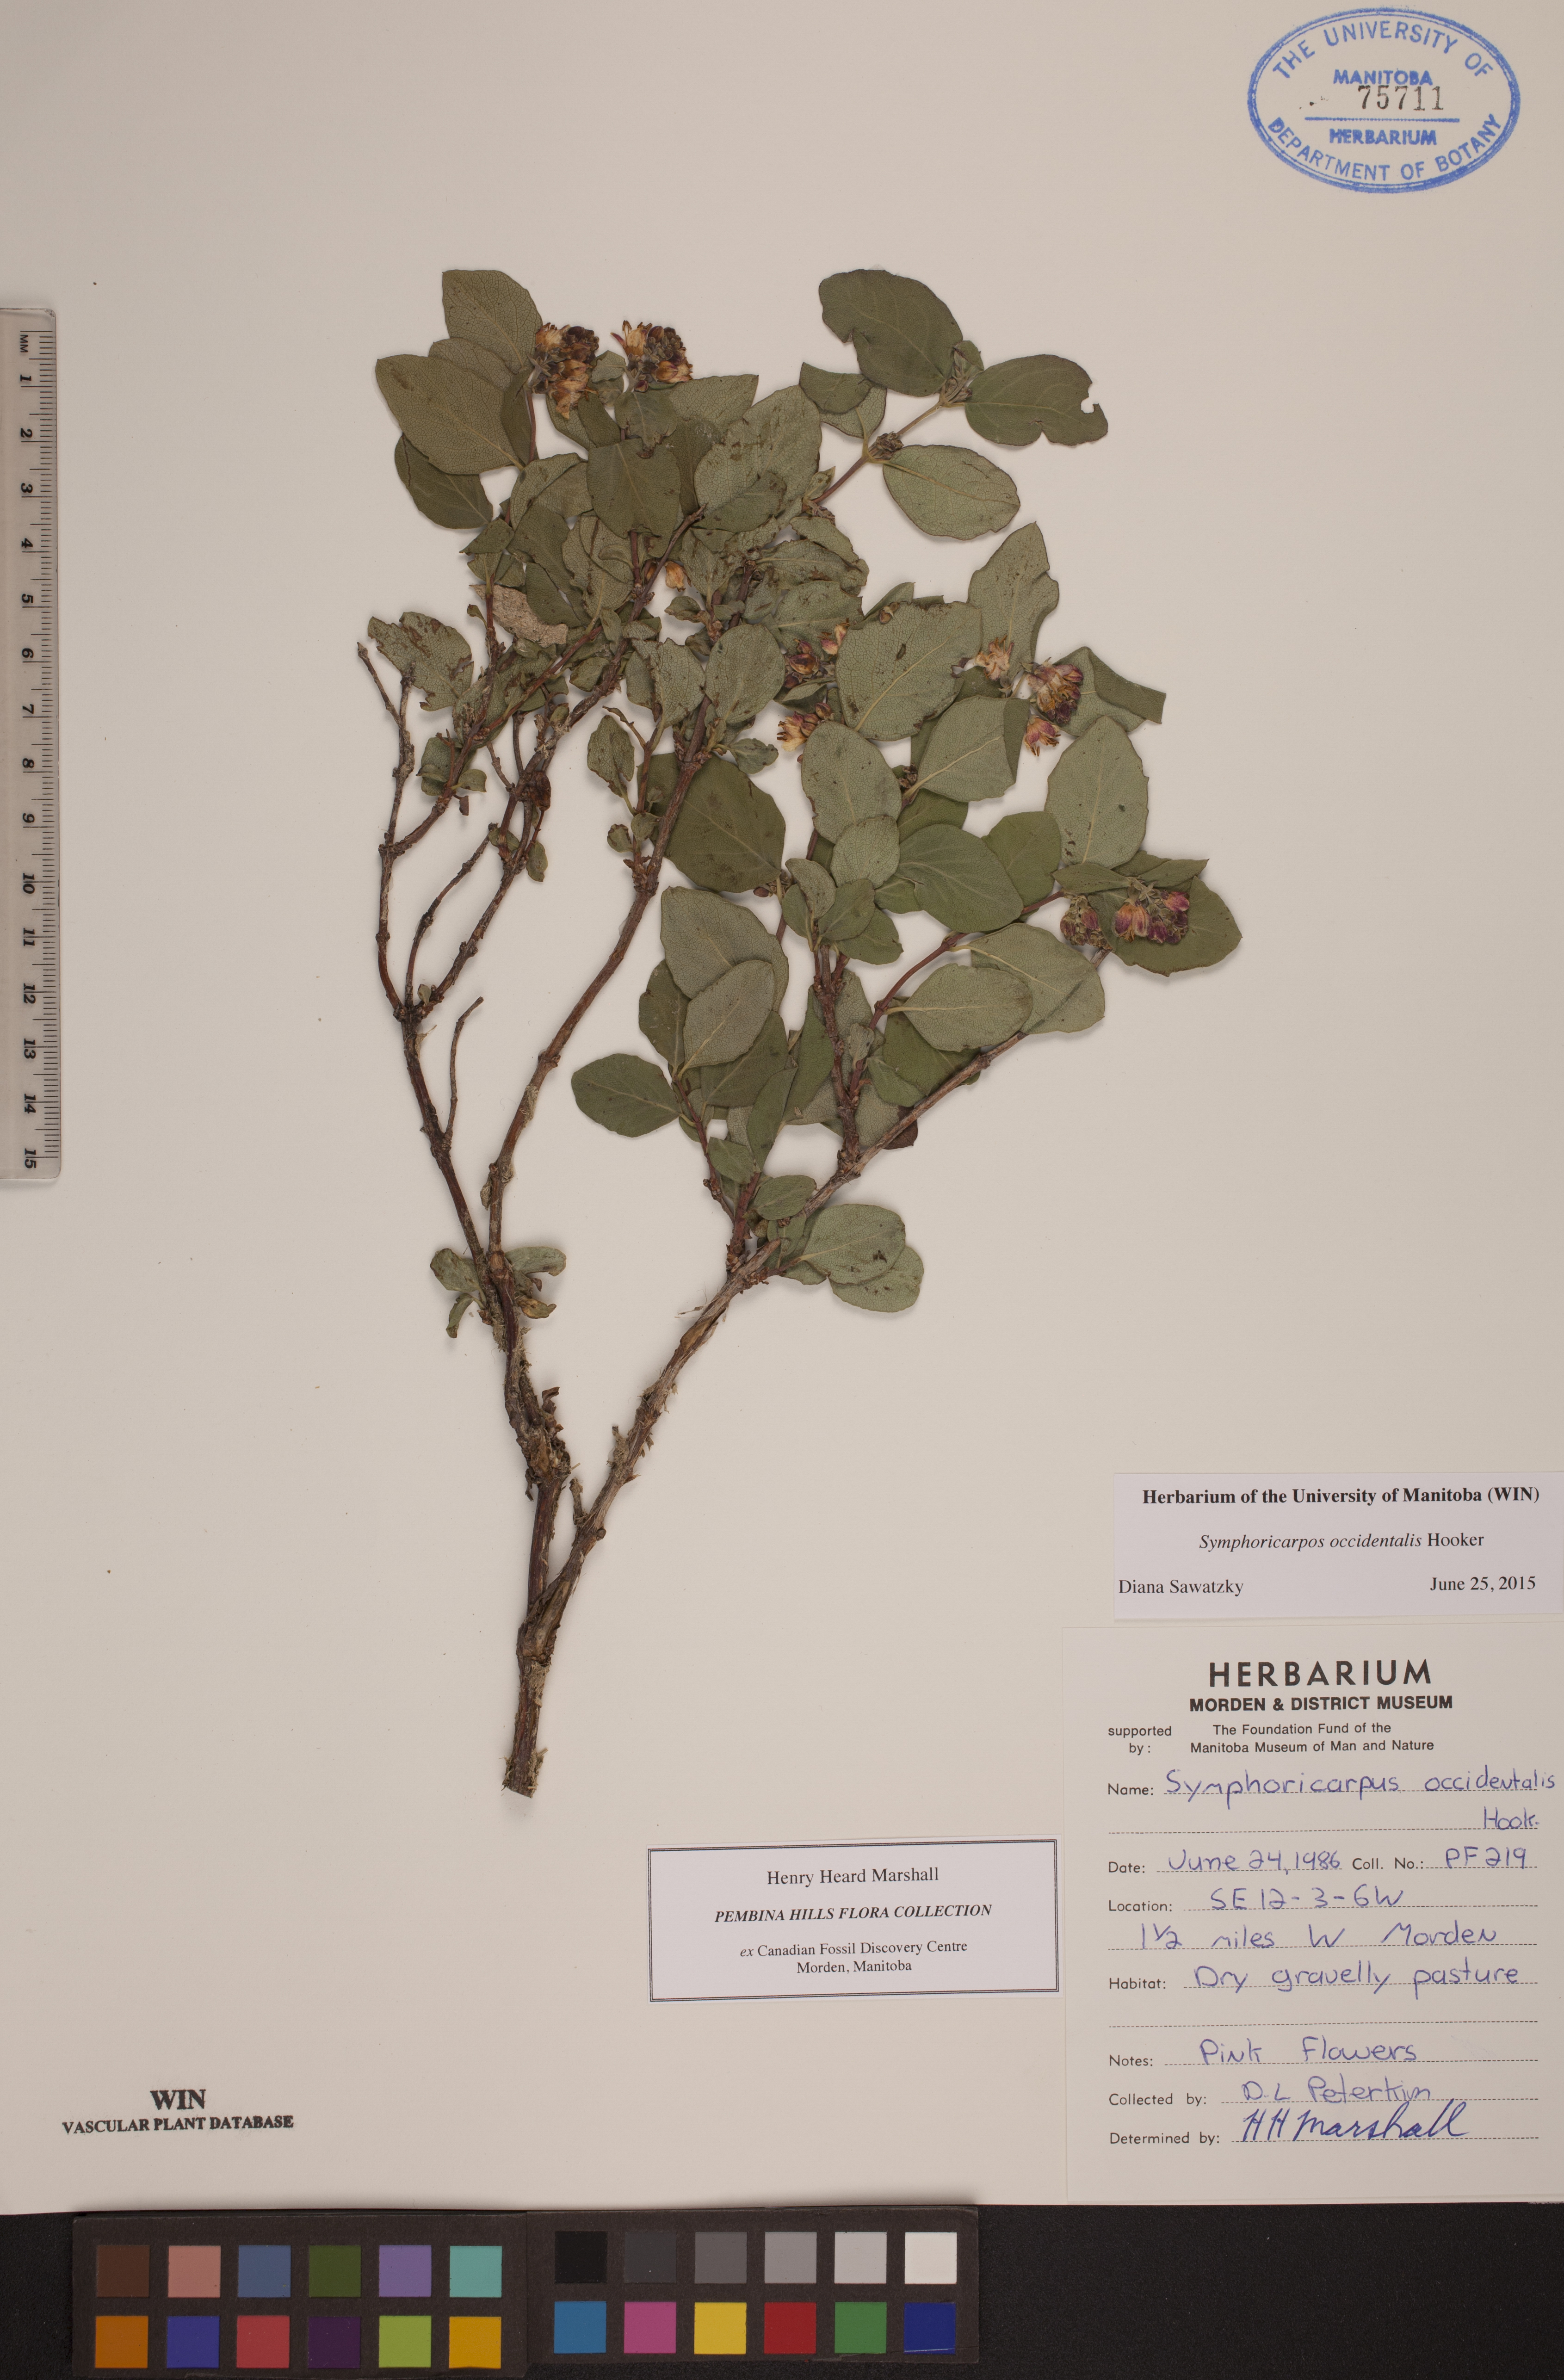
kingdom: Plantae
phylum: Tracheophyta
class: Magnoliopsida
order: Dipsacales
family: Caprifoliaceae
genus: Symphoricarpos
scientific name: Symphoricarpos occidentalis
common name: Wolfberry
